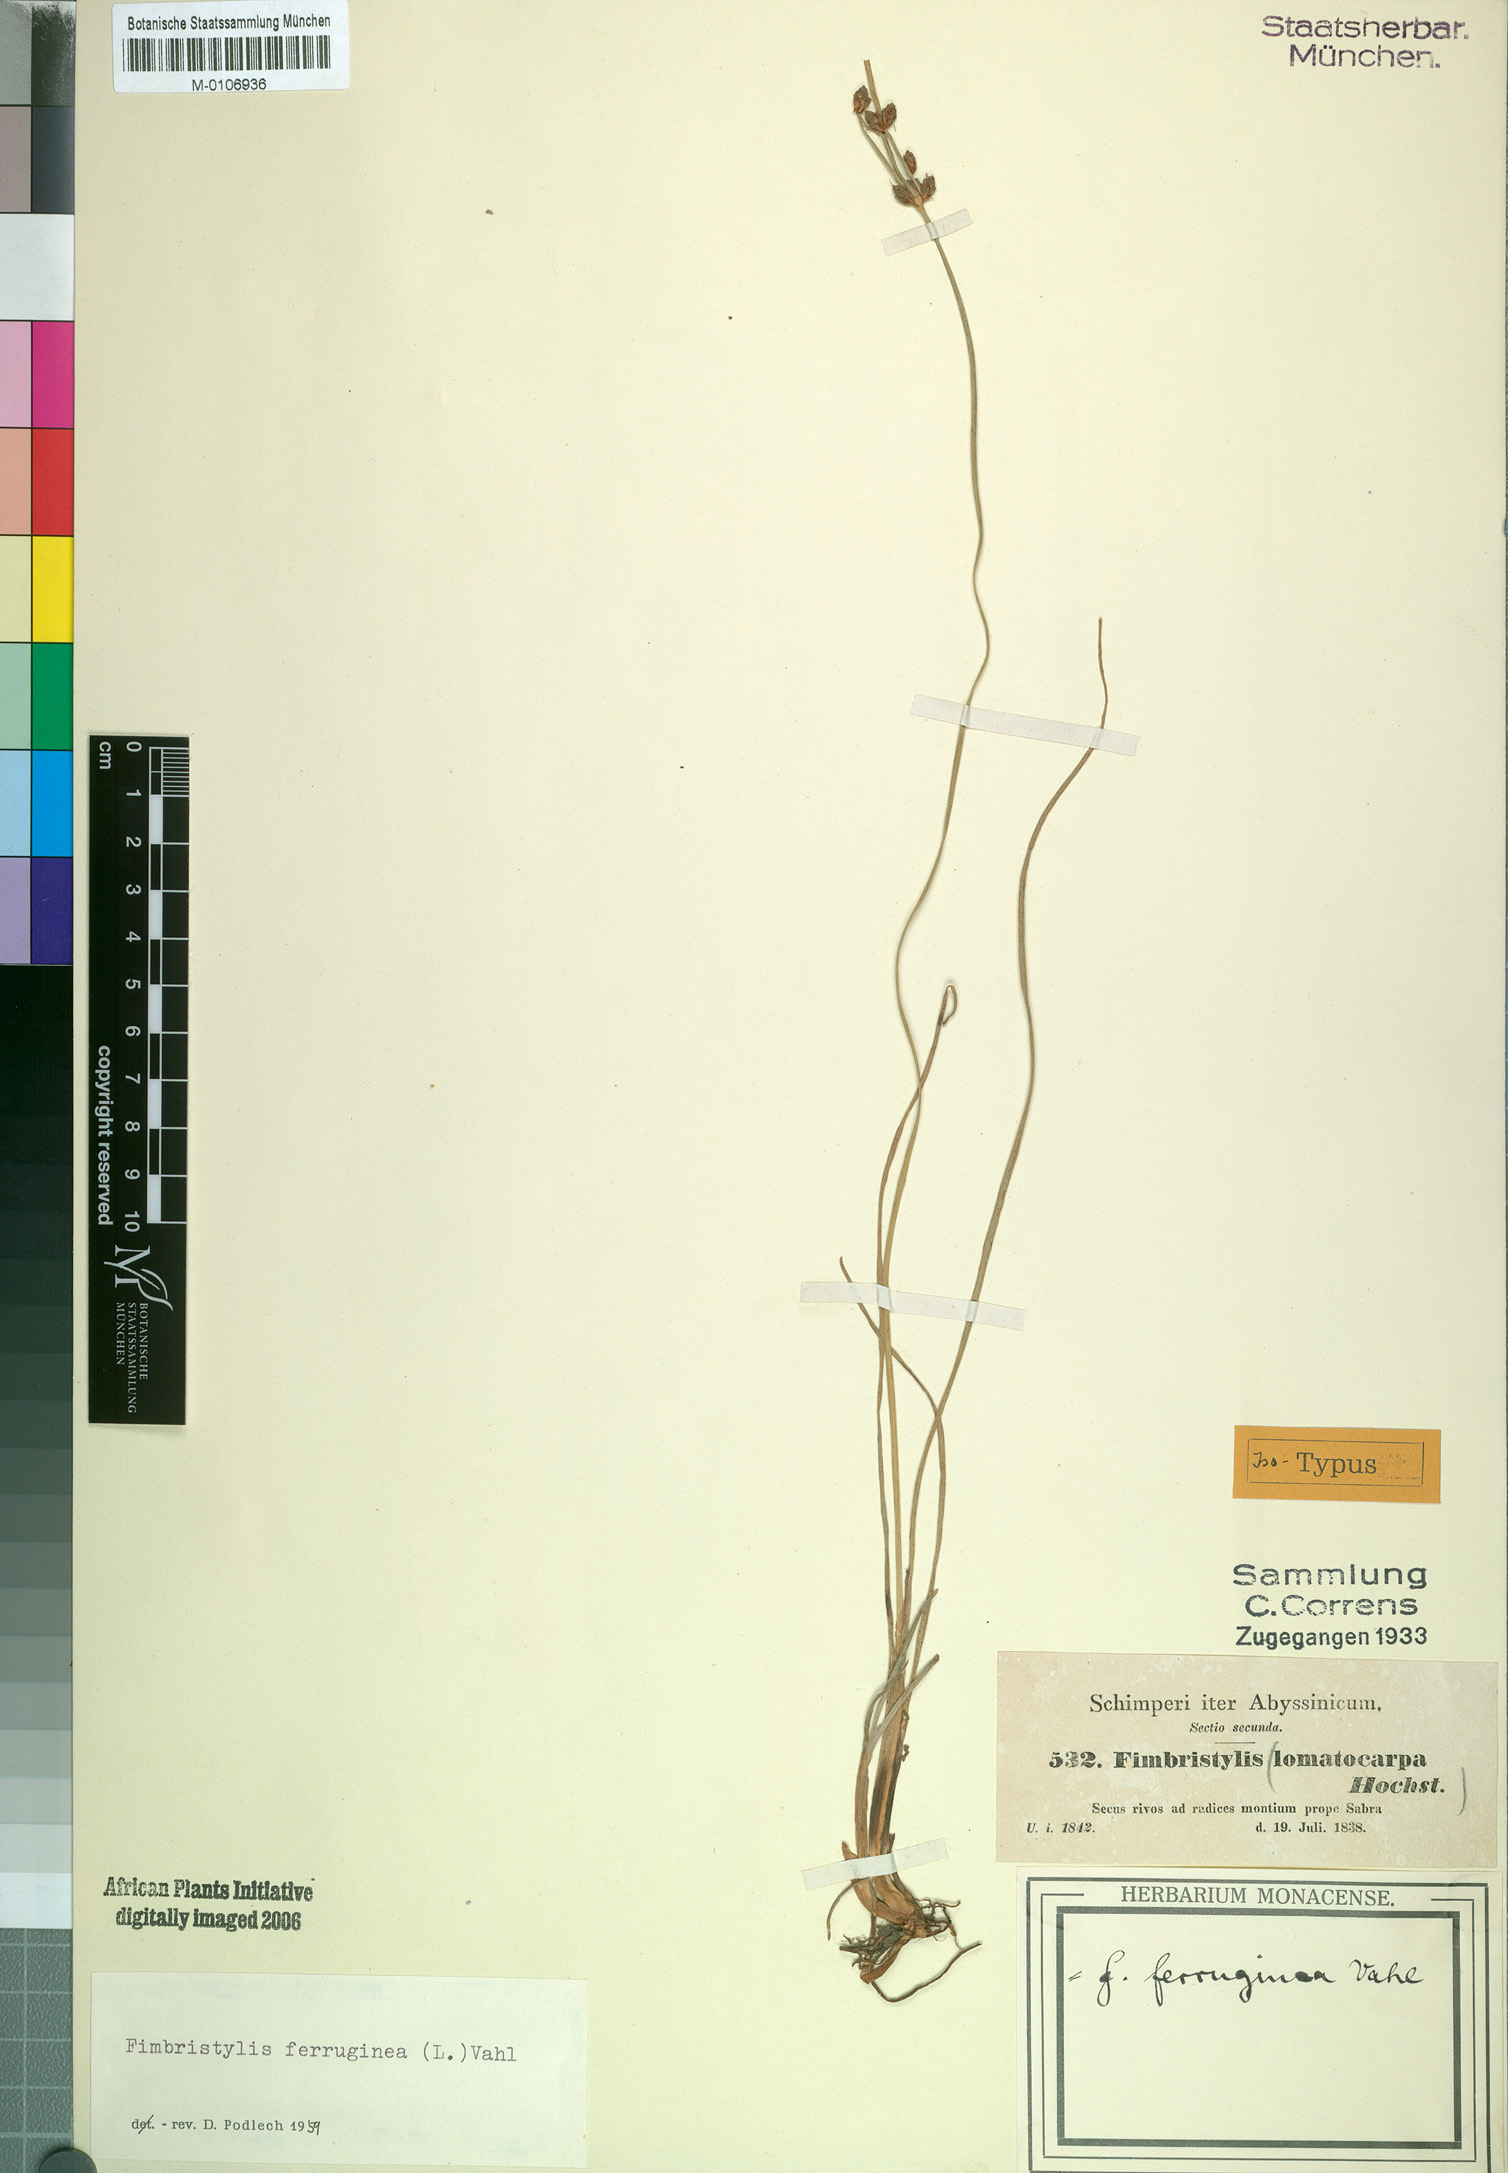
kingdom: Plantae
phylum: Tracheophyta
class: Liliopsida
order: Poales
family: Cyperaceae
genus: Fimbristylis
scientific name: Fimbristylis ferruginea
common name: West indian fimbry
